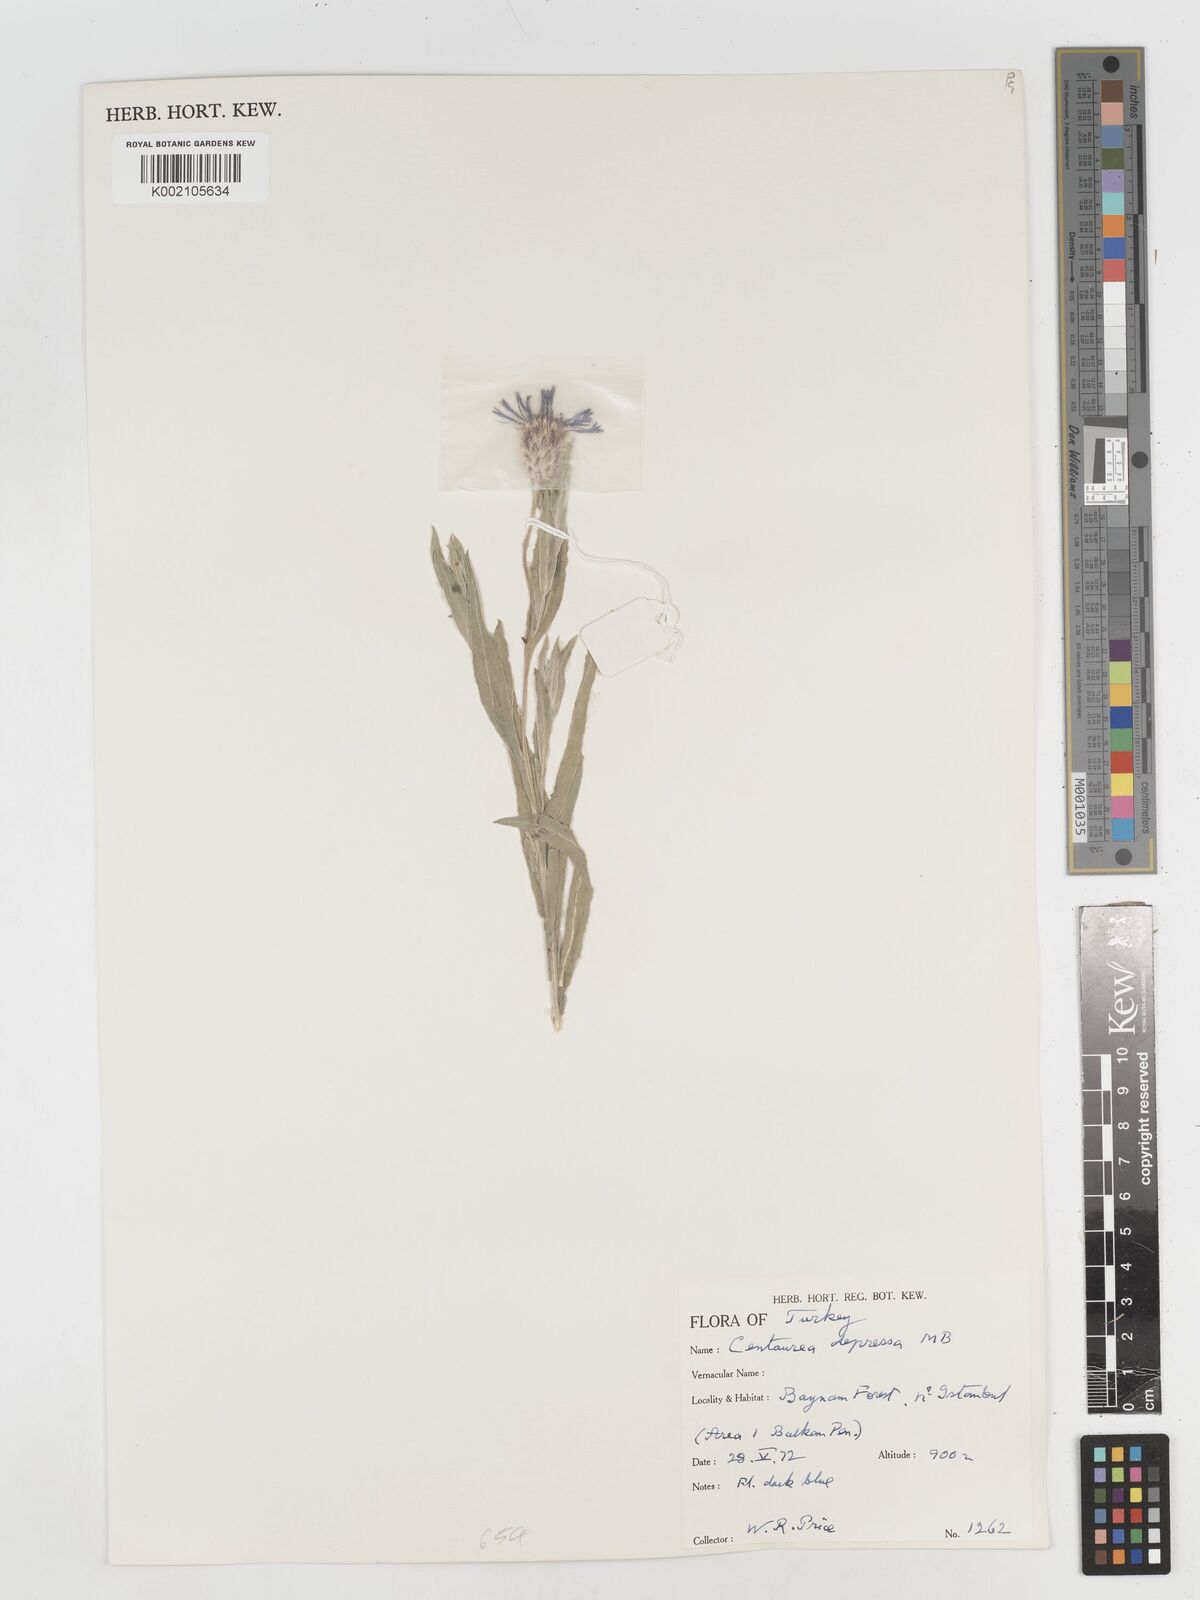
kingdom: Plantae
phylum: Tracheophyta
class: Magnoliopsida
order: Asterales
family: Asteraceae
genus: Centaurea
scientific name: Centaurea depressa
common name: Iranian knapweed
